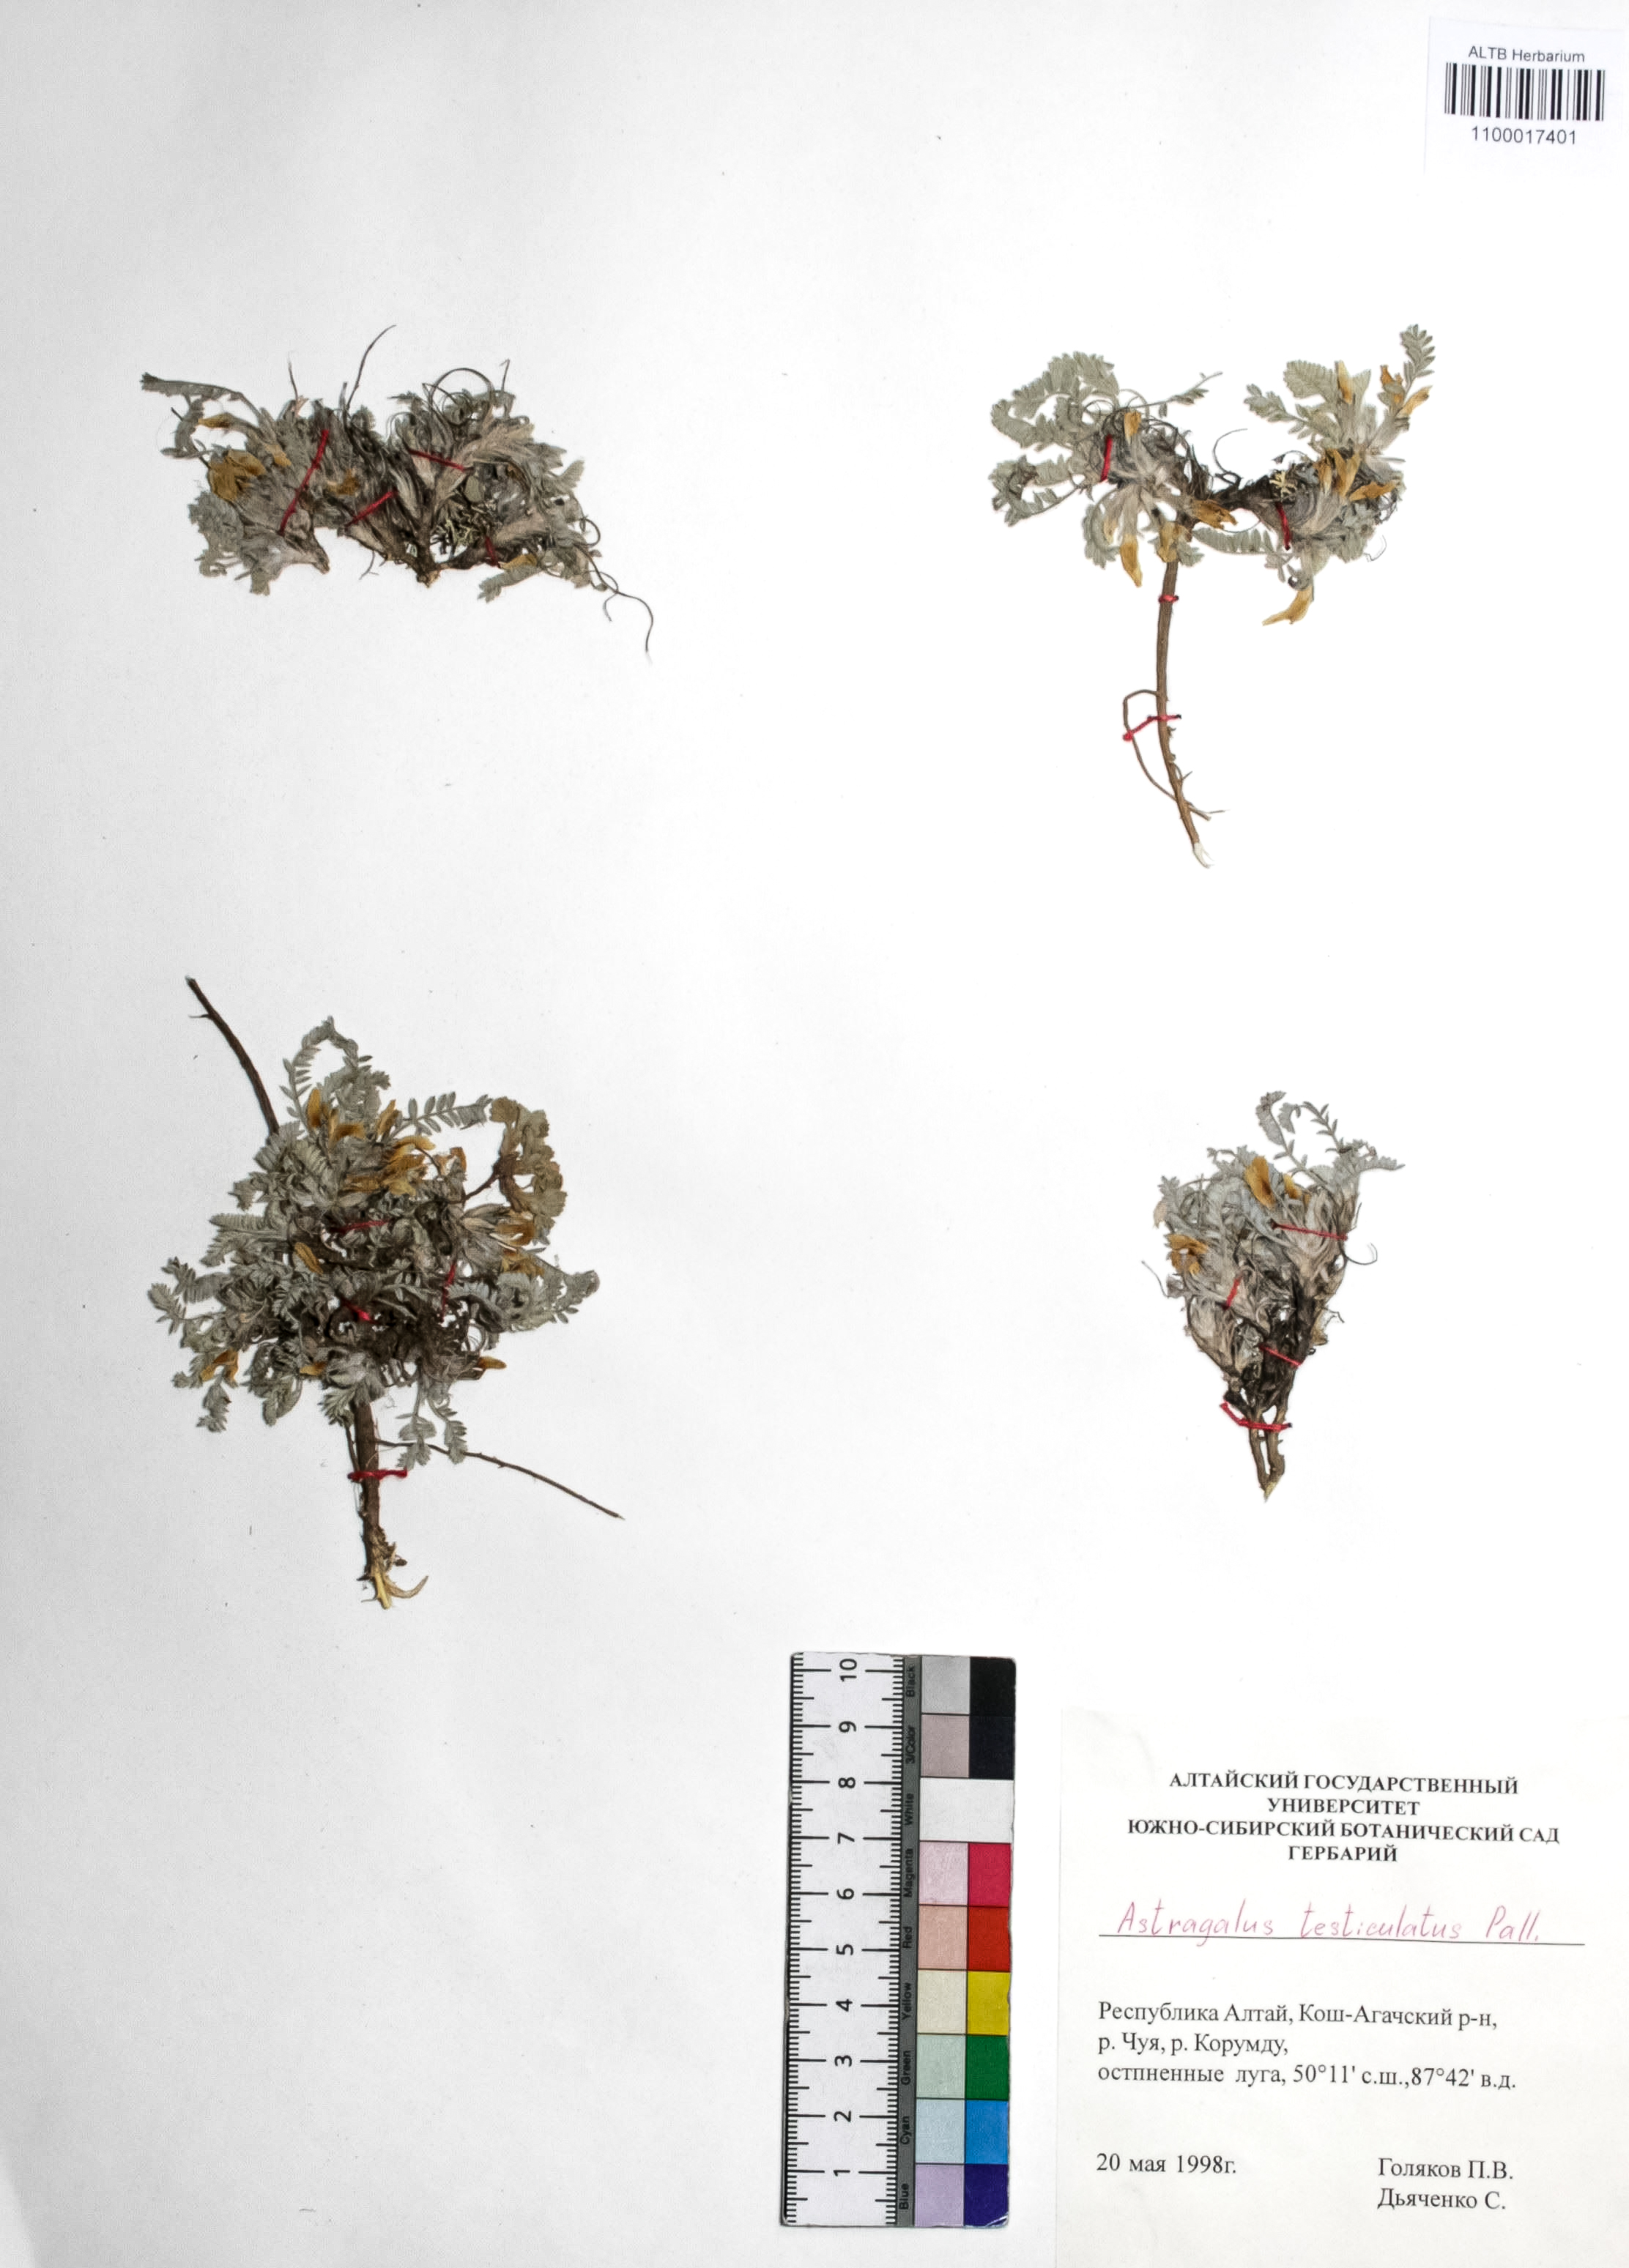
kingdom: Plantae
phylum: Tracheophyta
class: Magnoliopsida
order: Fabales
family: Fabaceae
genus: Astragalus
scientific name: Astragalus testiculatus
